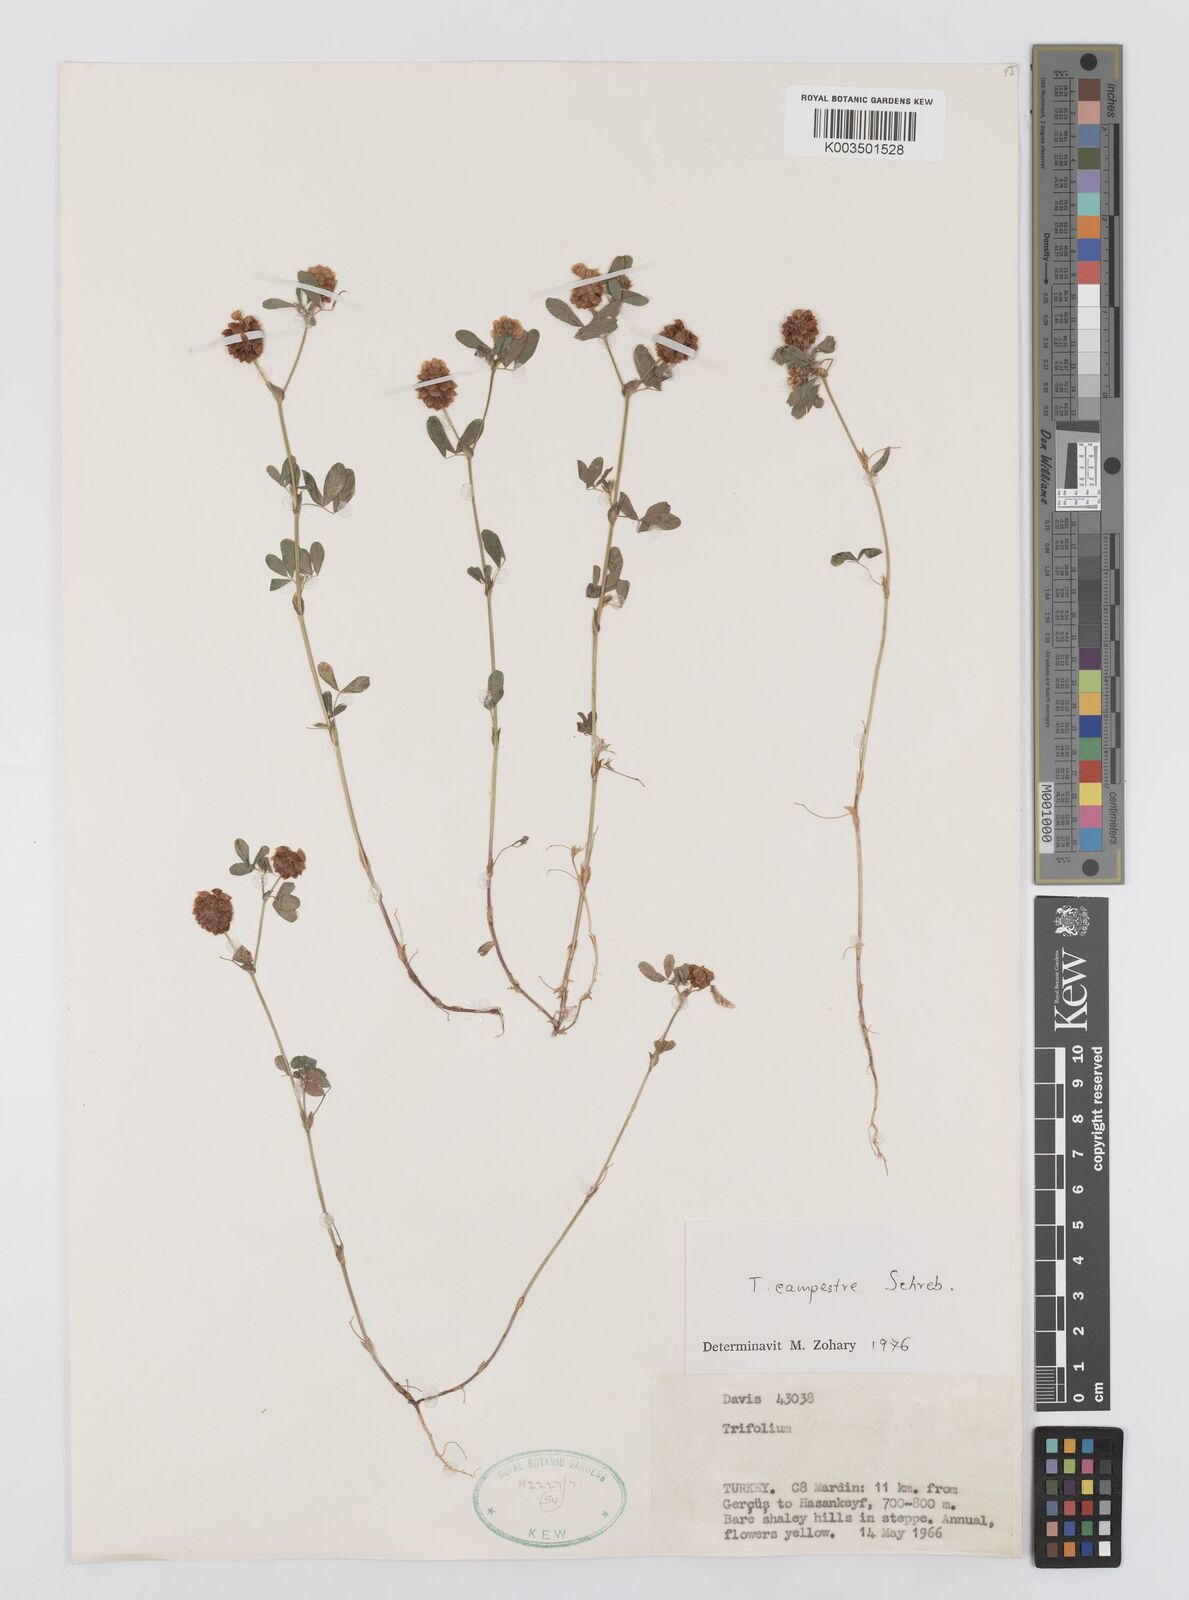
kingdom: Plantae
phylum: Tracheophyta
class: Magnoliopsida
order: Fabales
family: Fabaceae
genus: Trifolium
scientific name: Trifolium campestre
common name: Field clover
